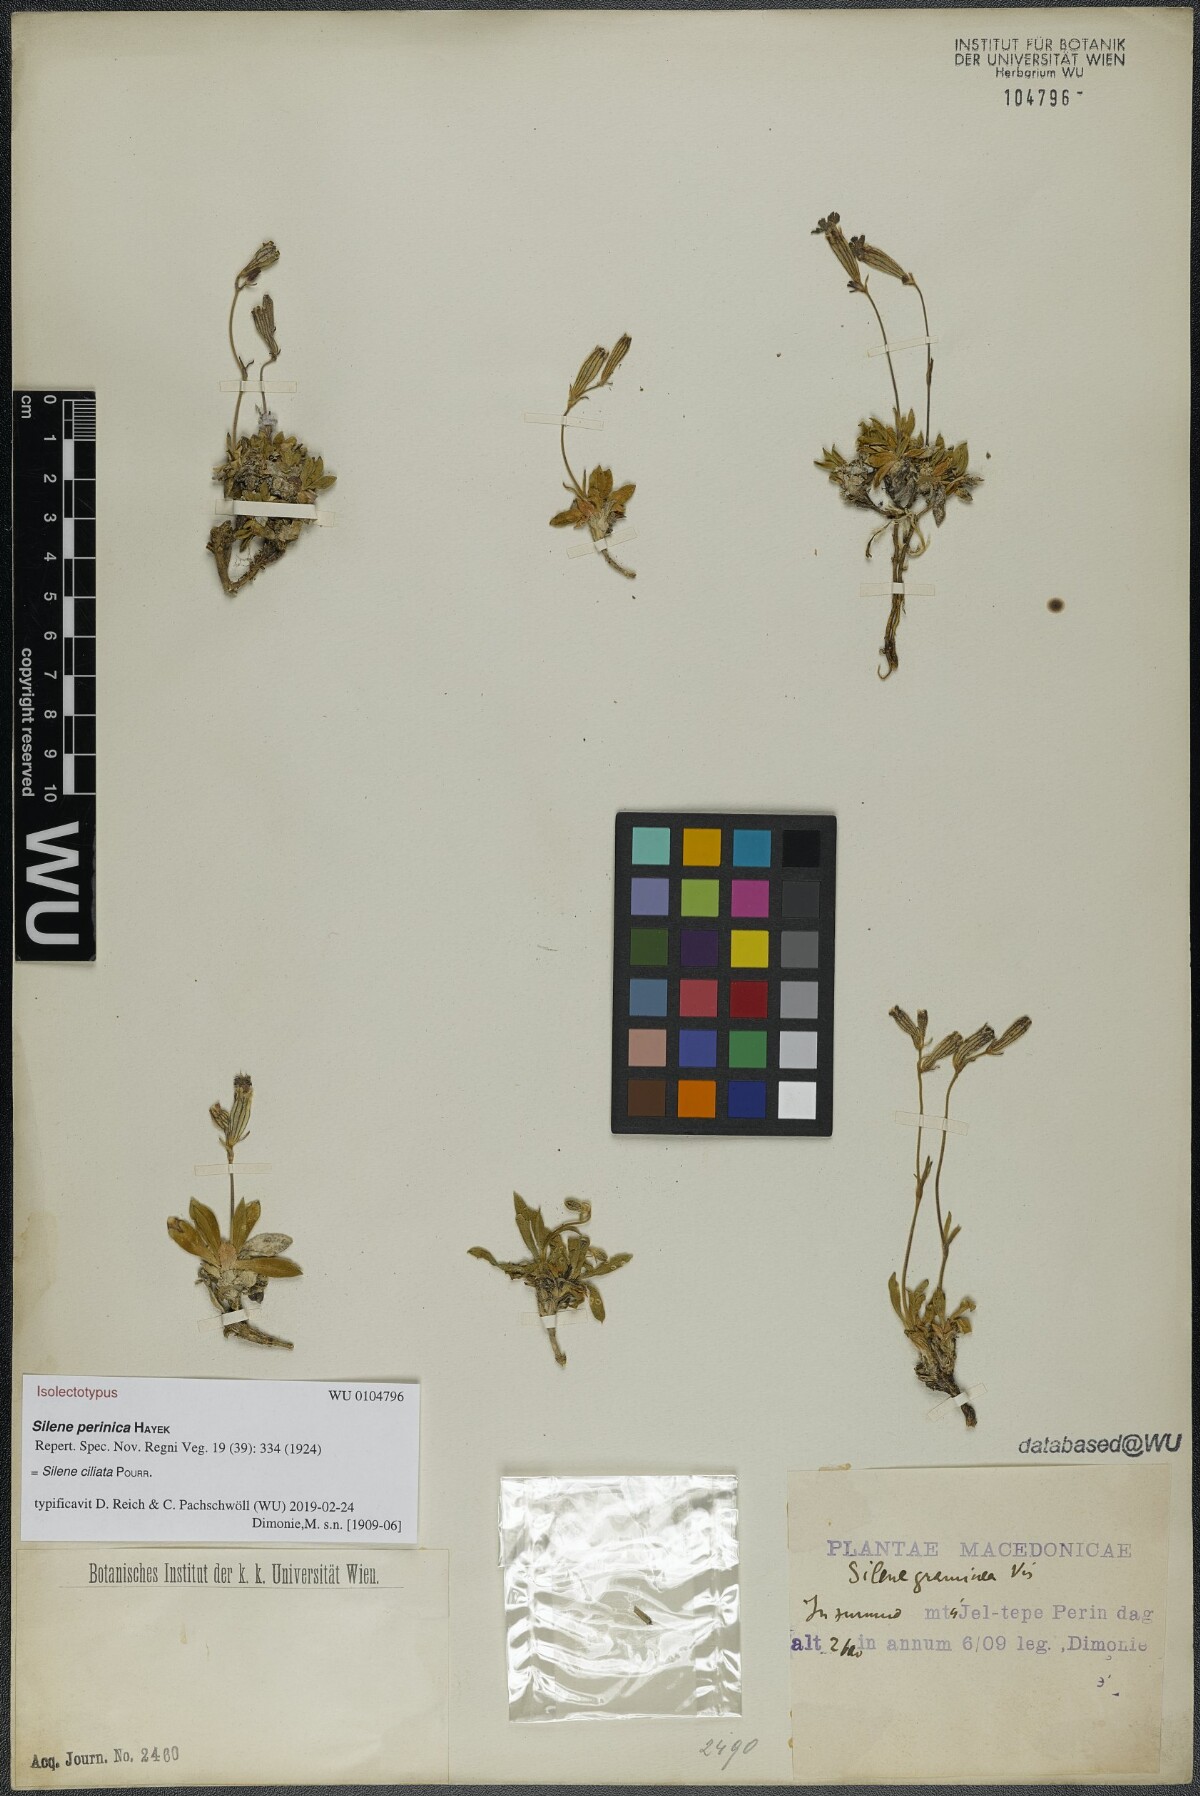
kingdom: Plantae
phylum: Tracheophyta
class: Magnoliopsida
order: Caryophyllales
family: Caryophyllaceae
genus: Silene
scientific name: Silene ciliata
